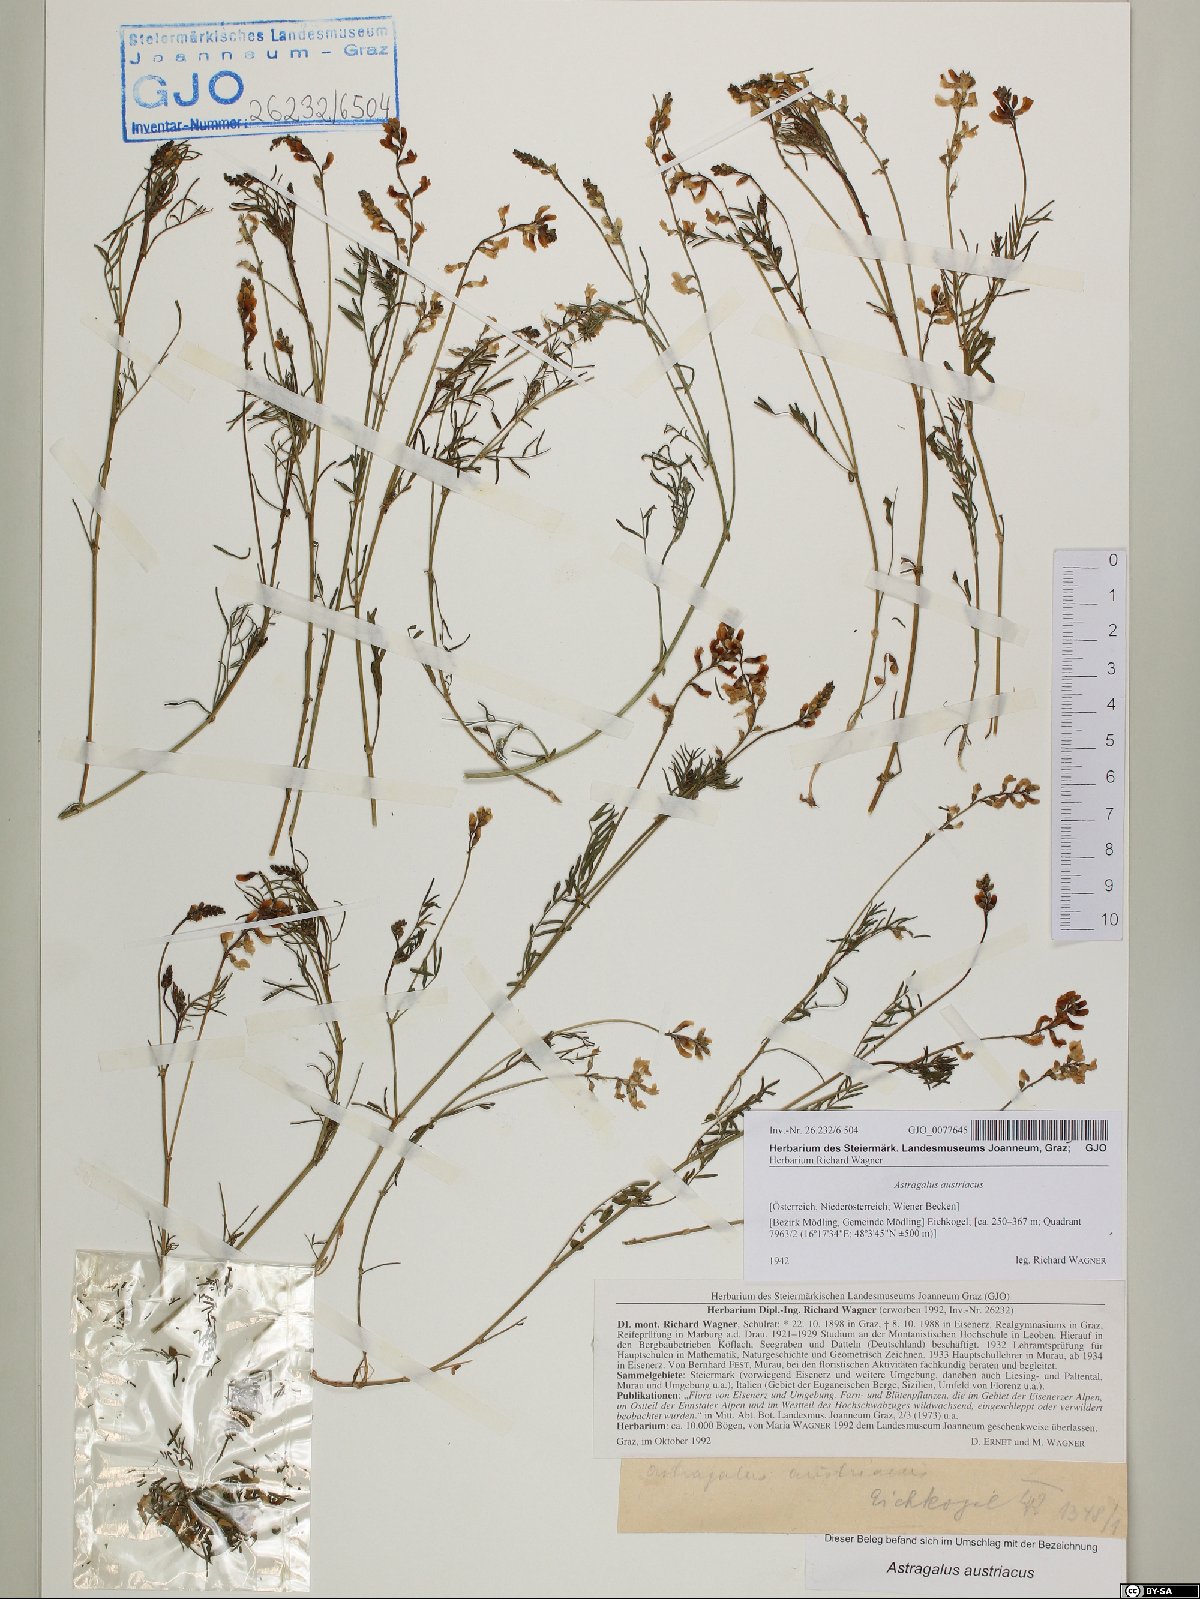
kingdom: Plantae
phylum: Tracheophyta
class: Magnoliopsida
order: Fabales
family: Fabaceae
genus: Astragalus
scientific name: Astragalus austriacus
